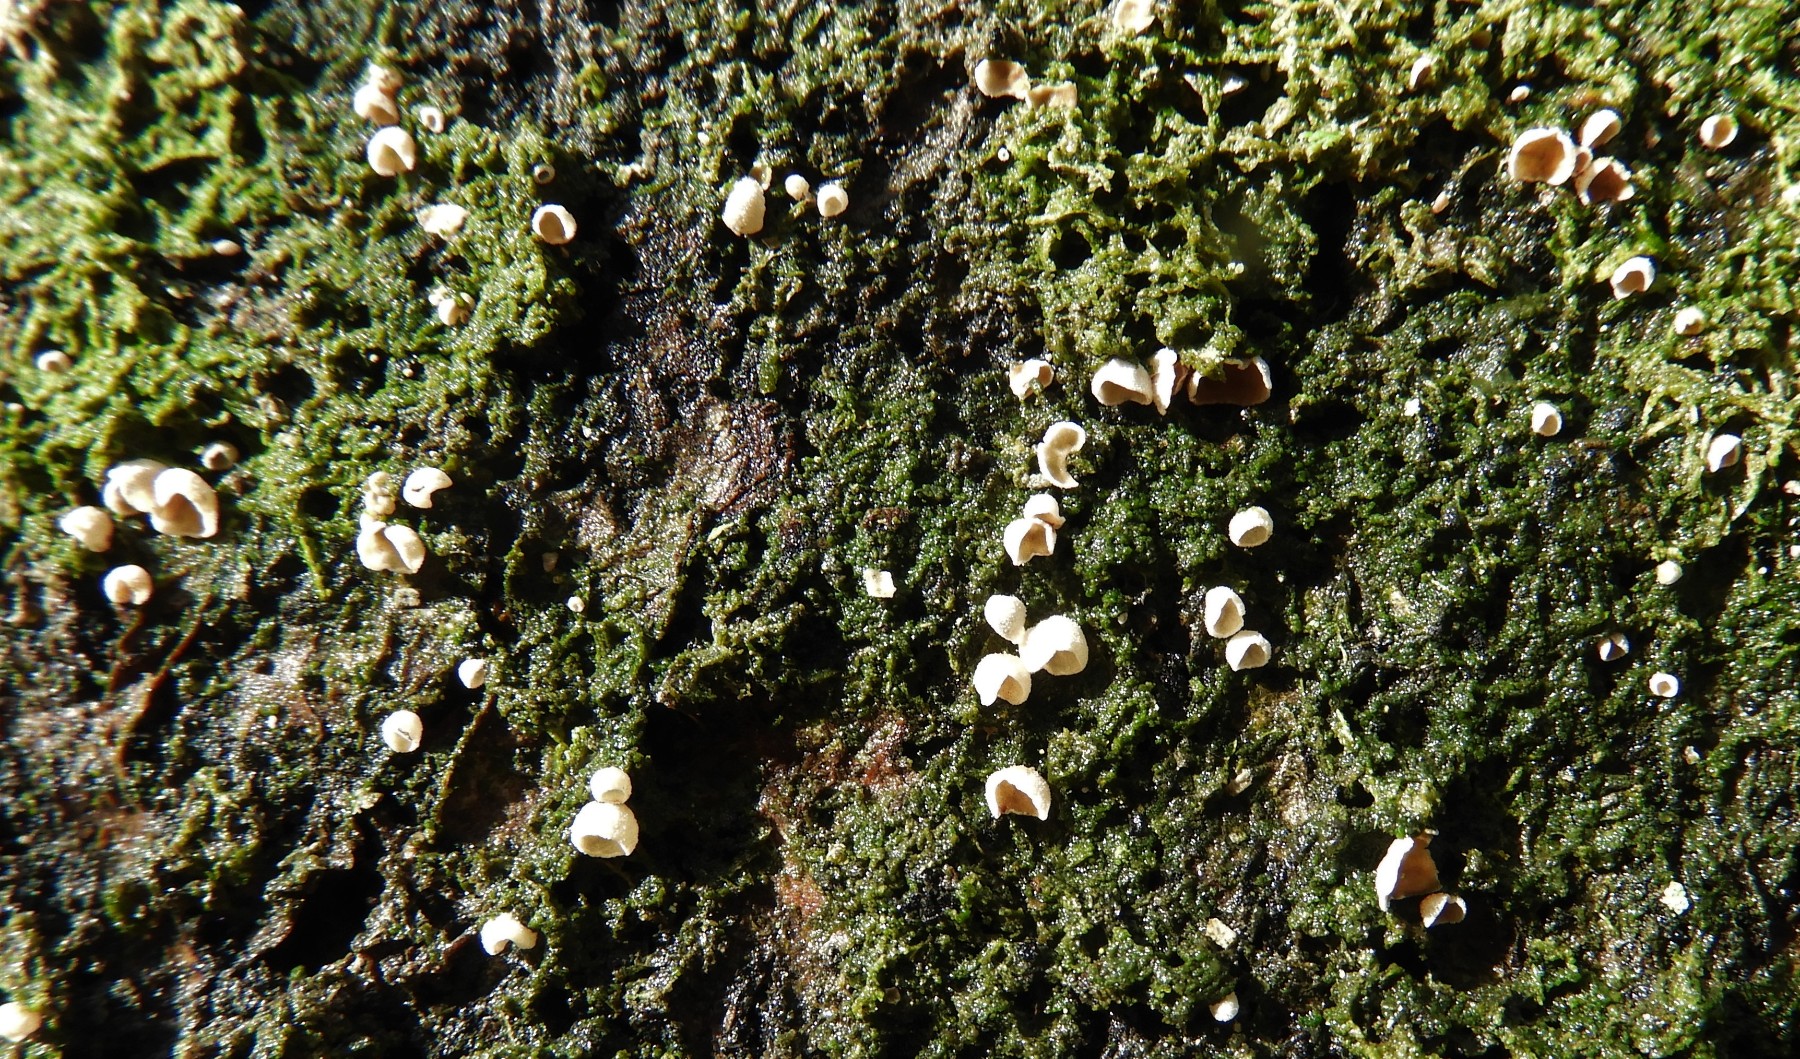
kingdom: Fungi
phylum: Basidiomycota
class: Agaricomycetes
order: Agaricales
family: Chromocyphellaceae
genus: Chromocyphella
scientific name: Chromocyphella muscicola
